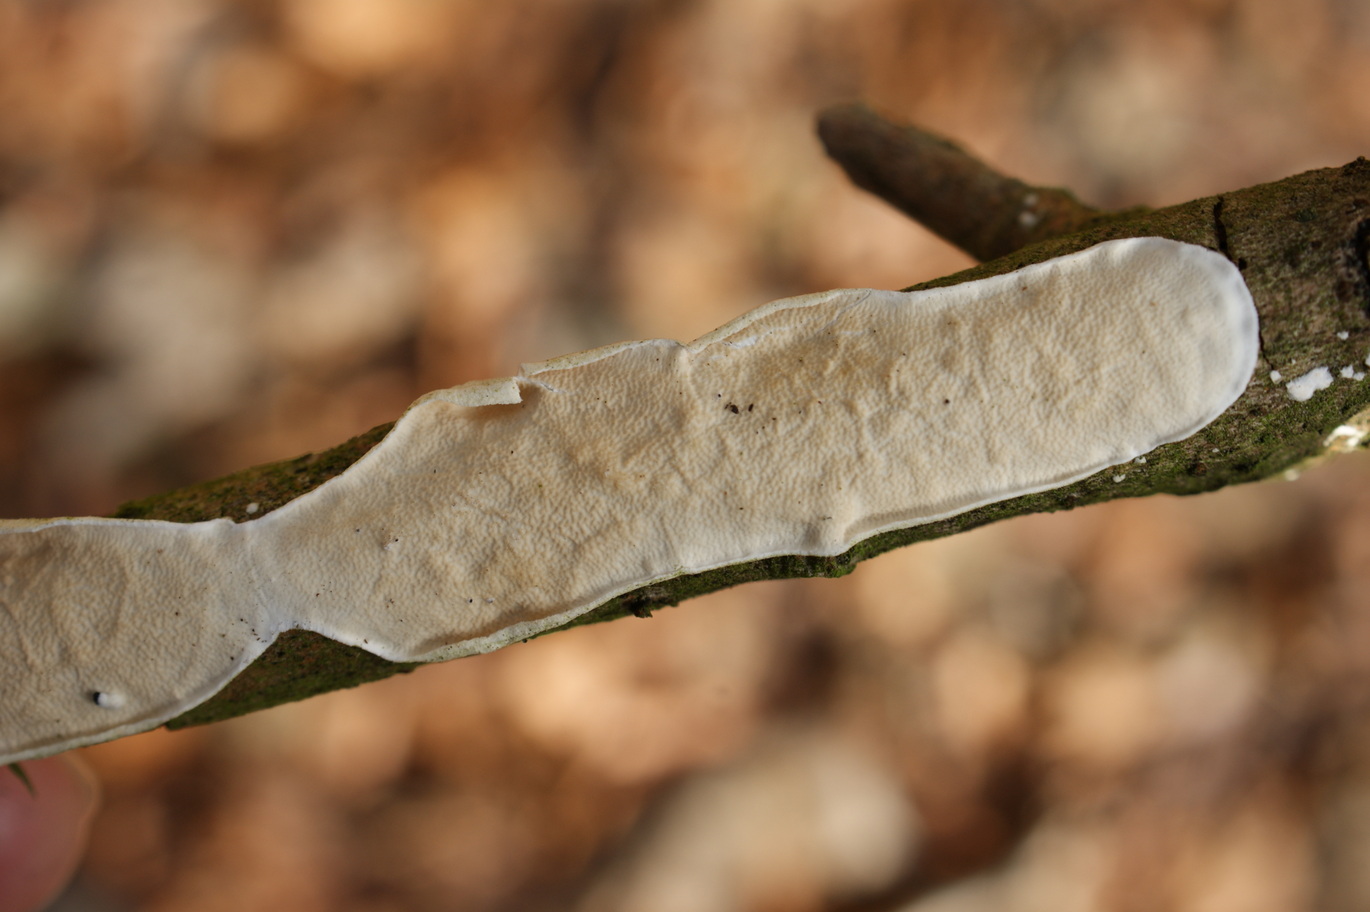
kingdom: Fungi
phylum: Basidiomycota
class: Agaricomycetes
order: Polyporales
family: Irpicaceae
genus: Byssomerulius
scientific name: Byssomerulius corium
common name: læder-åresvamp
